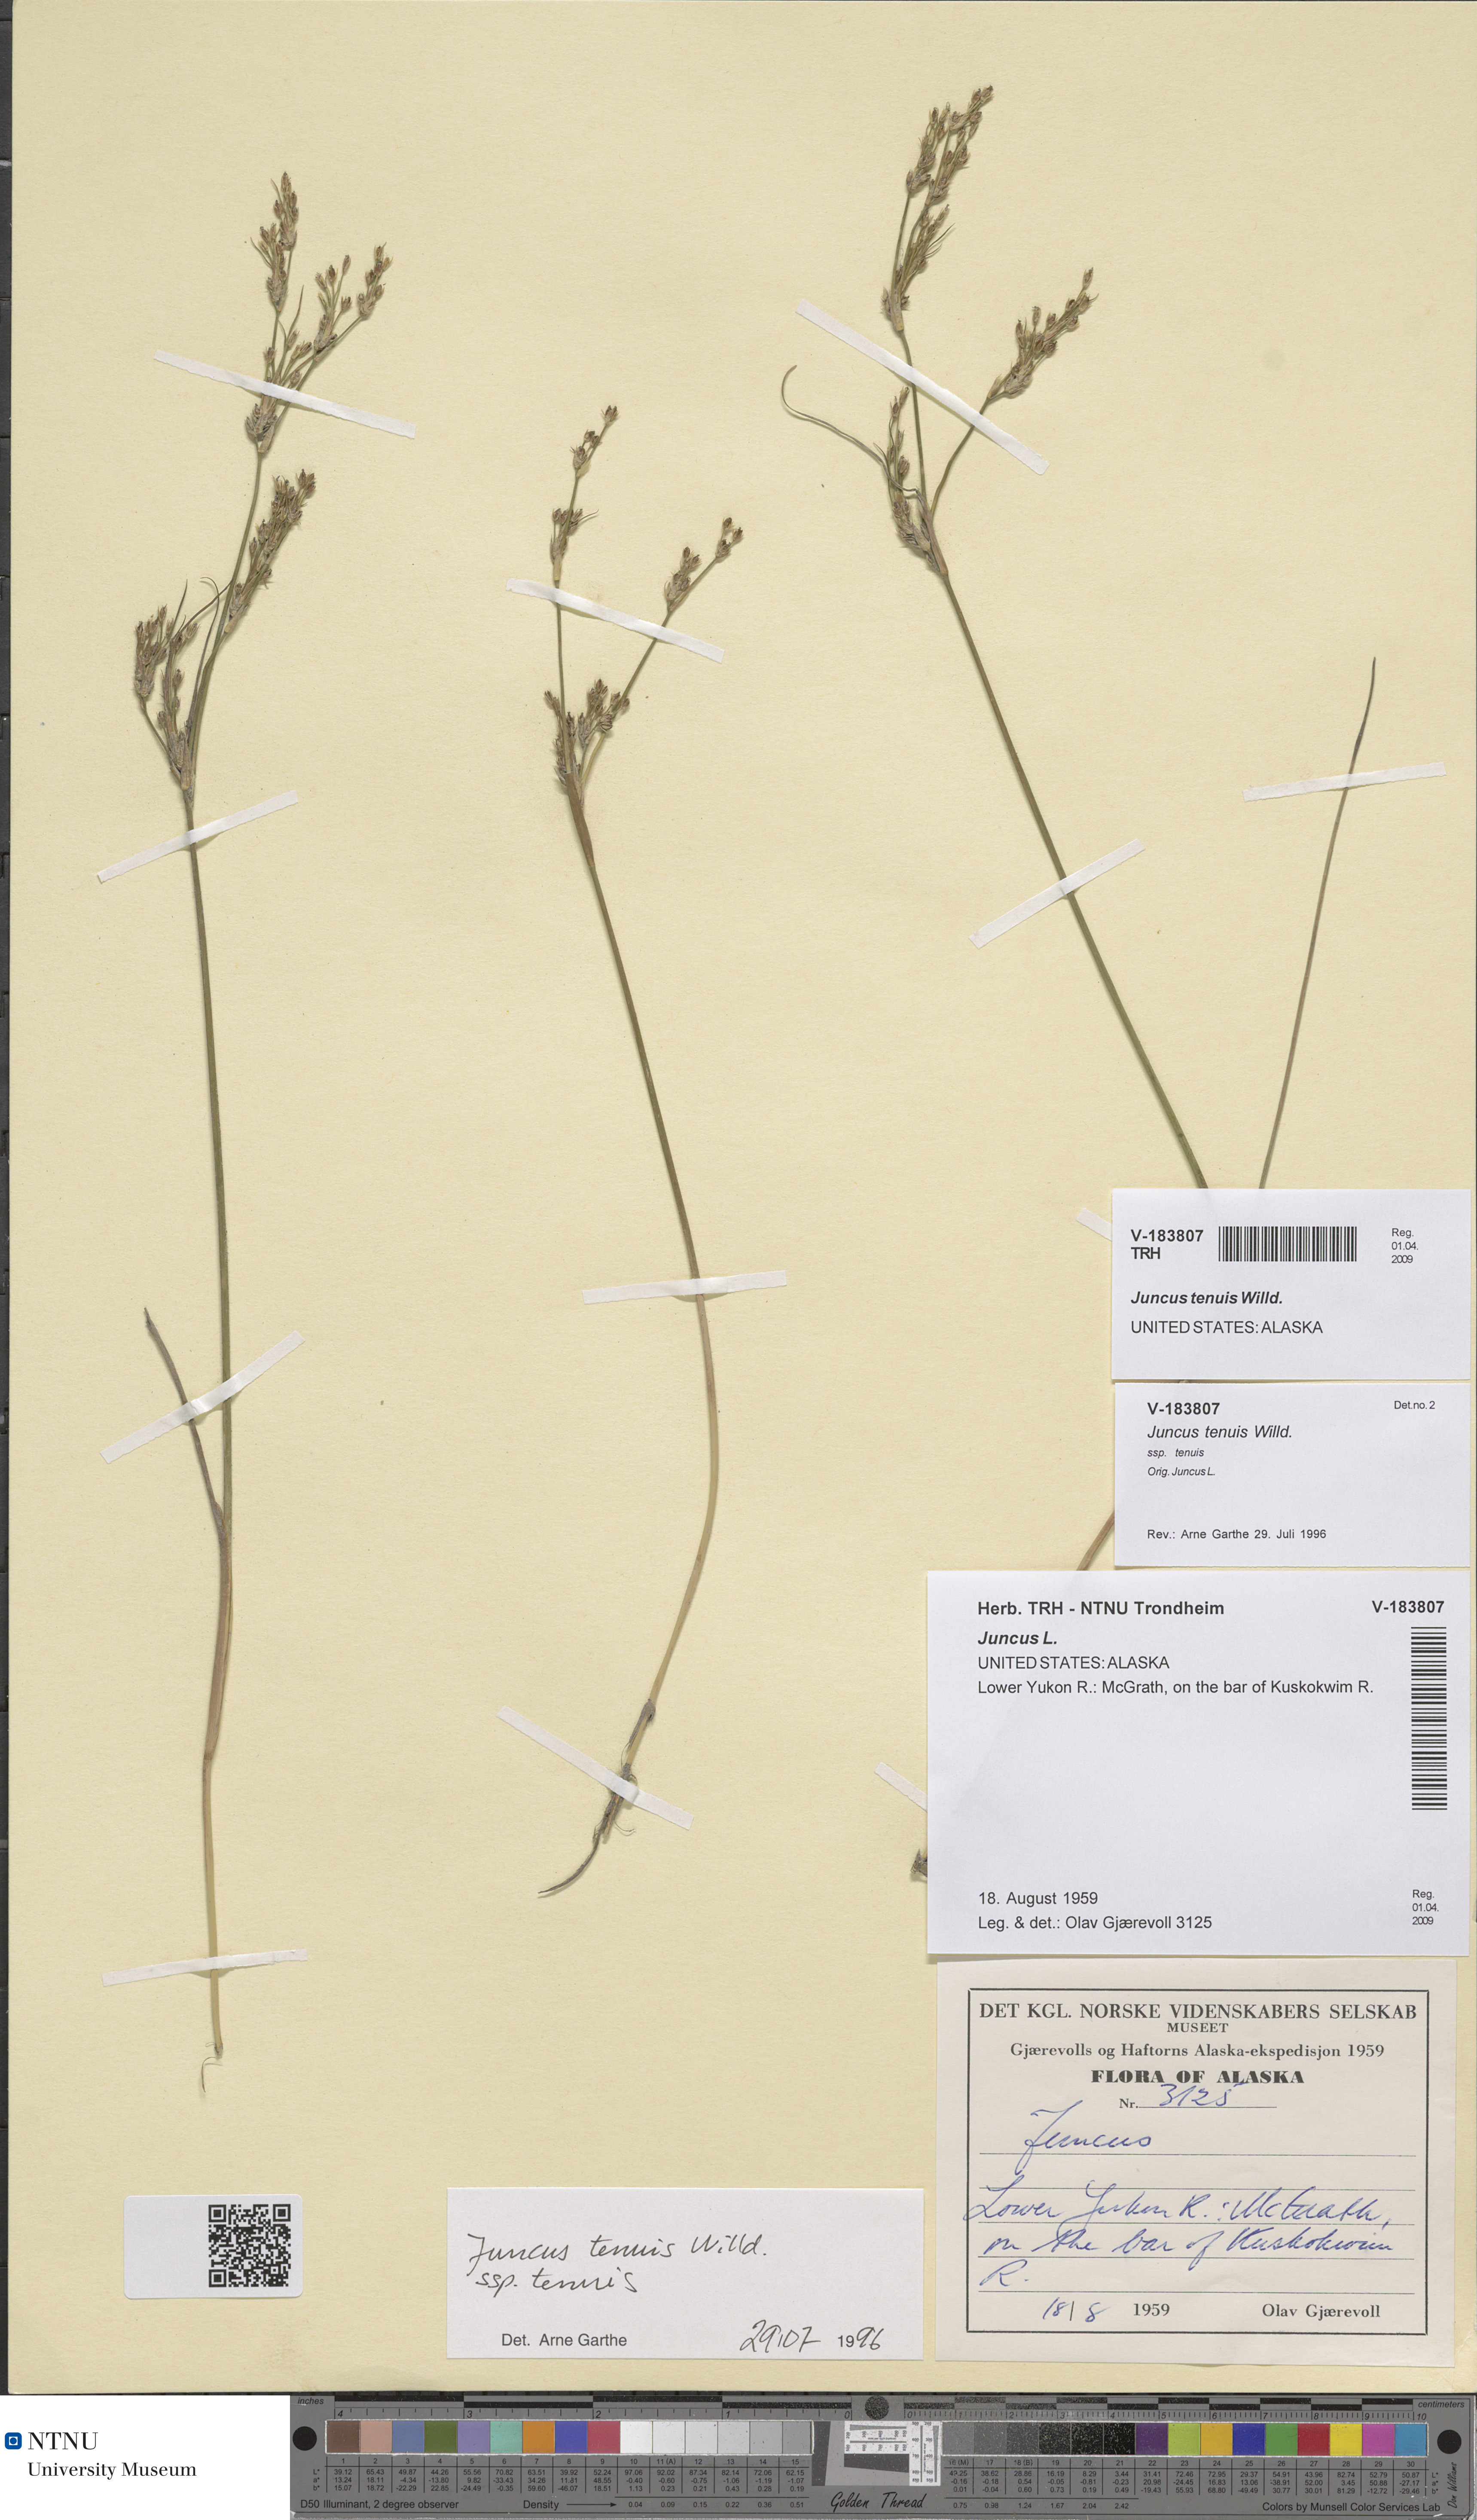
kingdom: Plantae
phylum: Tracheophyta
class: Liliopsida
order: Poales
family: Juncaceae
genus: Juncus
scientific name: Juncus tenuis
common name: Slender rush
